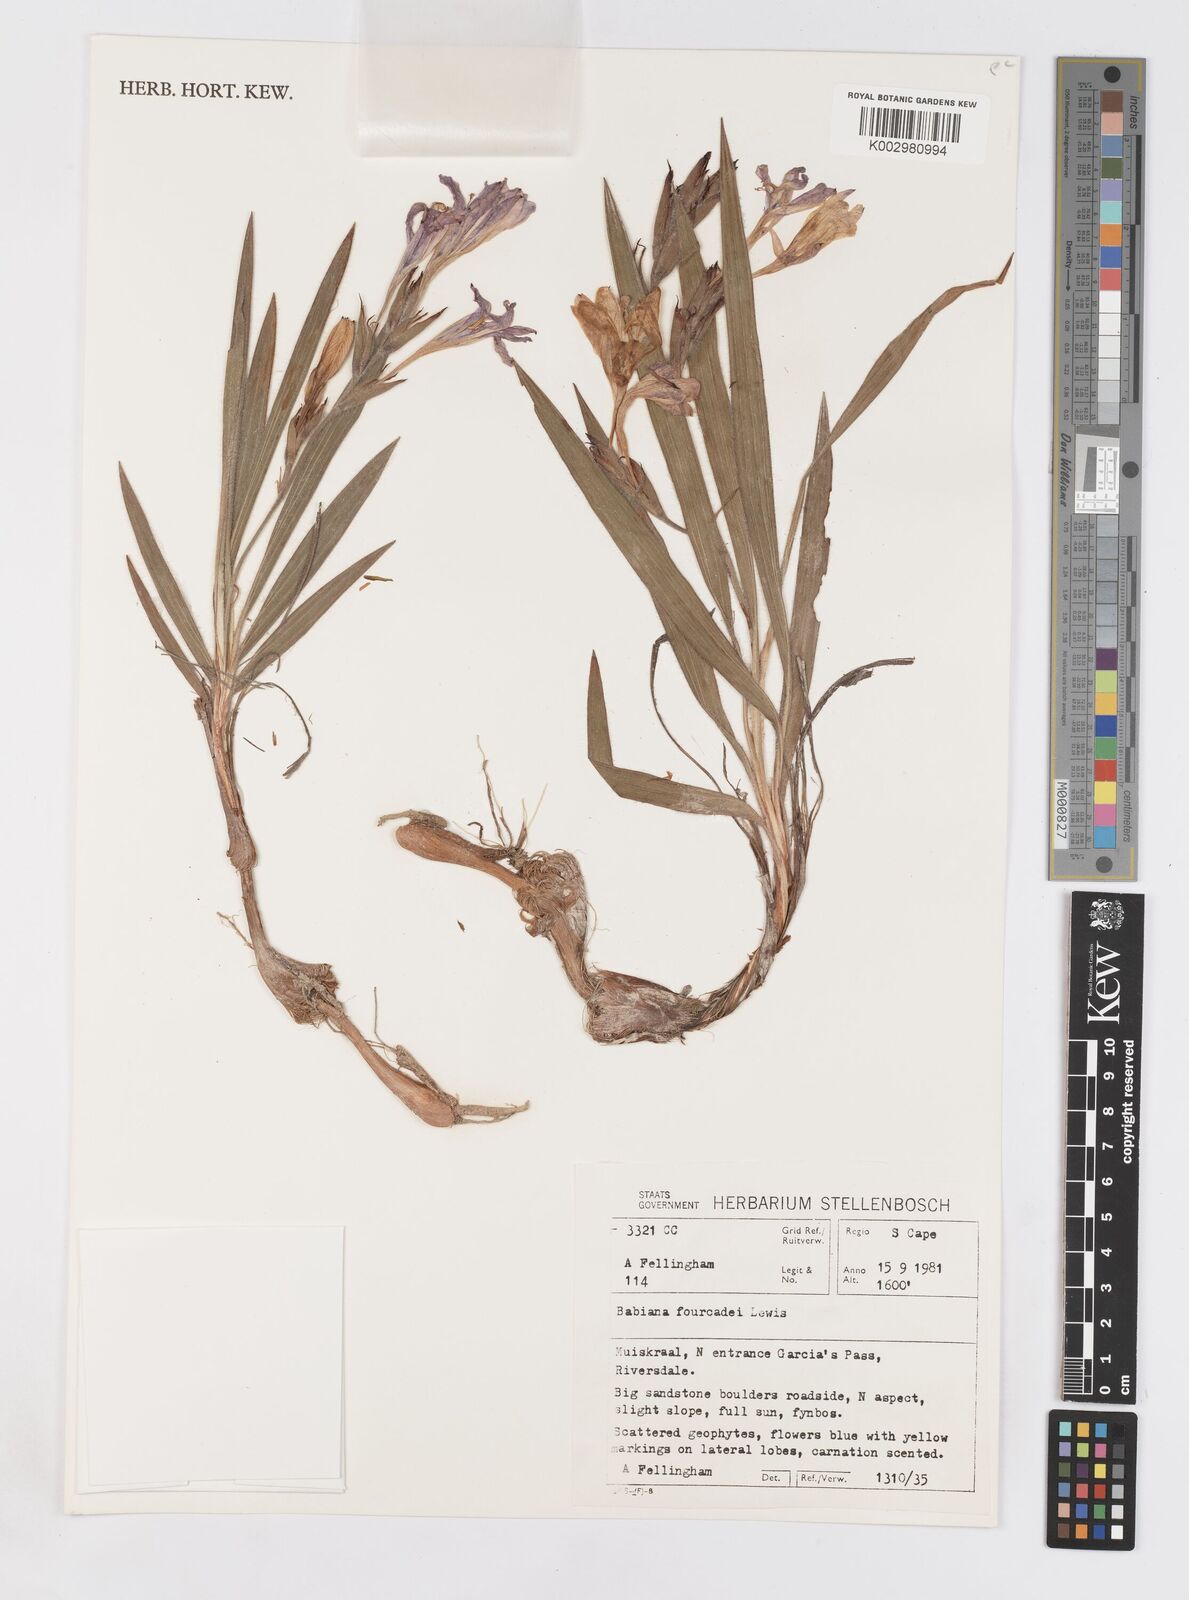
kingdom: Plantae
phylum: Tracheophyta
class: Liliopsida
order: Asparagales
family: Iridaceae
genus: Babiana
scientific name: Babiana fourcadei
